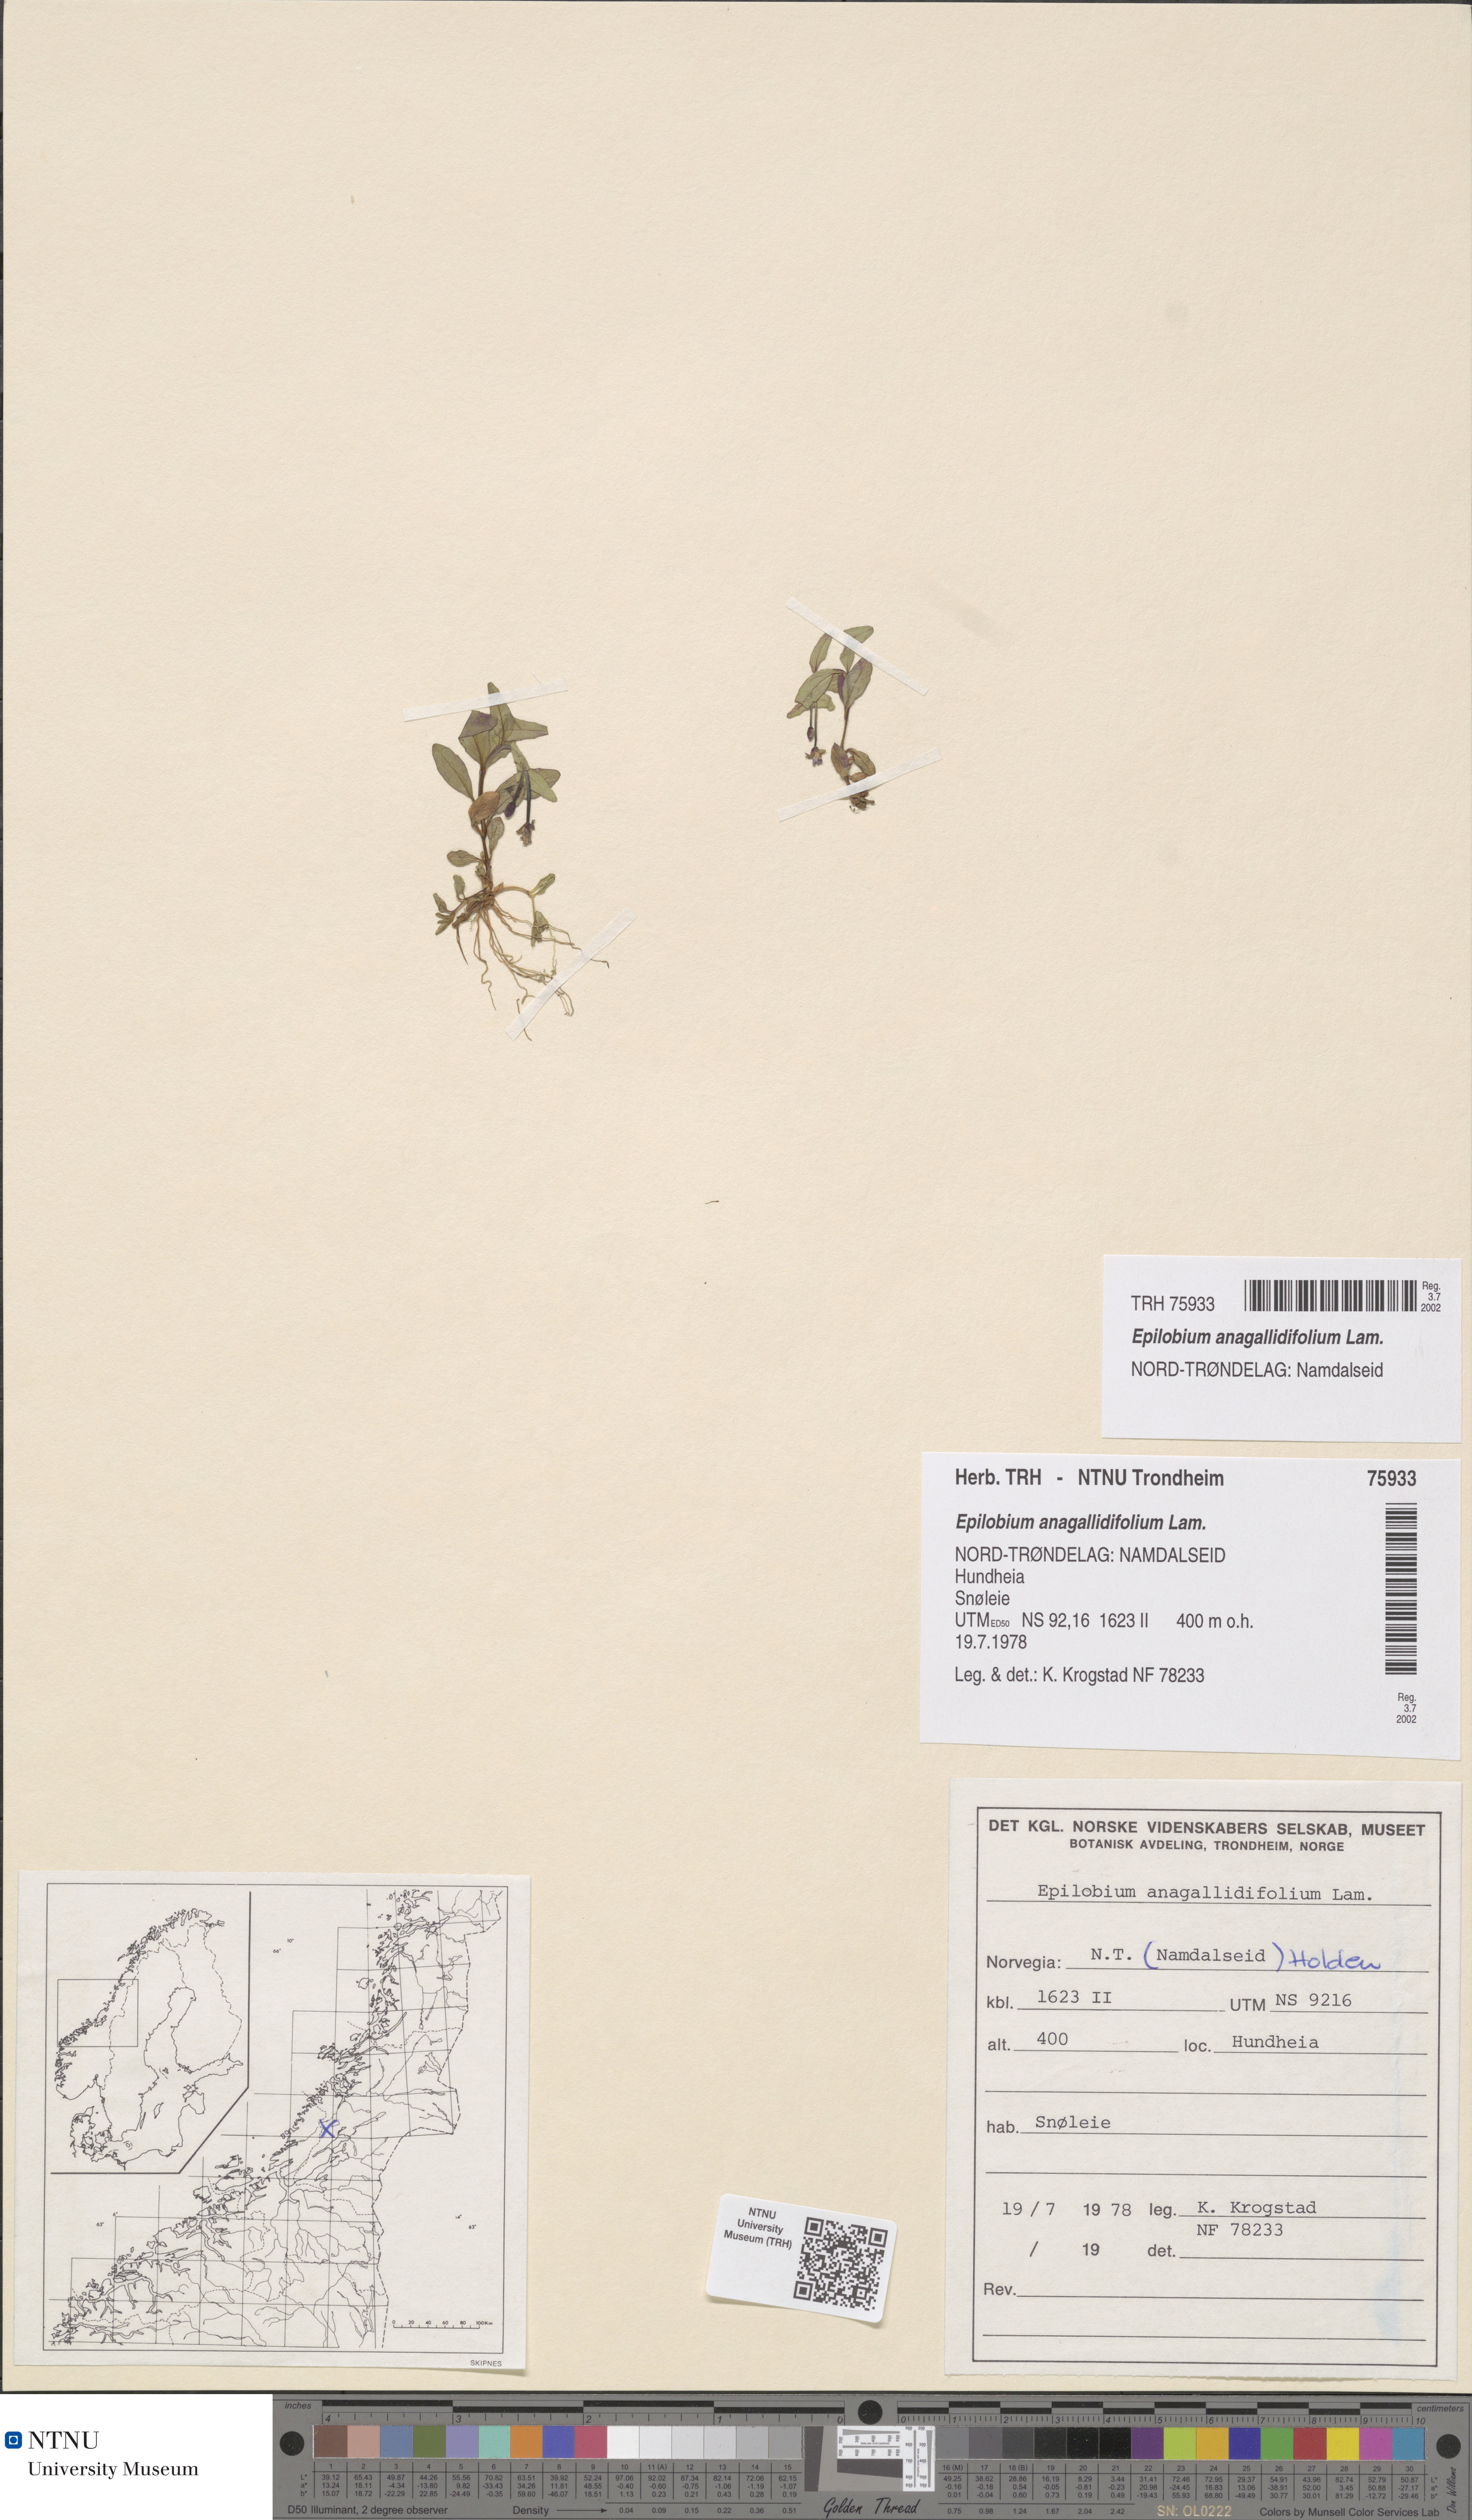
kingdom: Plantae
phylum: Tracheophyta
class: Magnoliopsida
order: Myrtales
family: Onagraceae
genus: Epilobium
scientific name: Epilobium anagallidifolium
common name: Alpine willowherb
